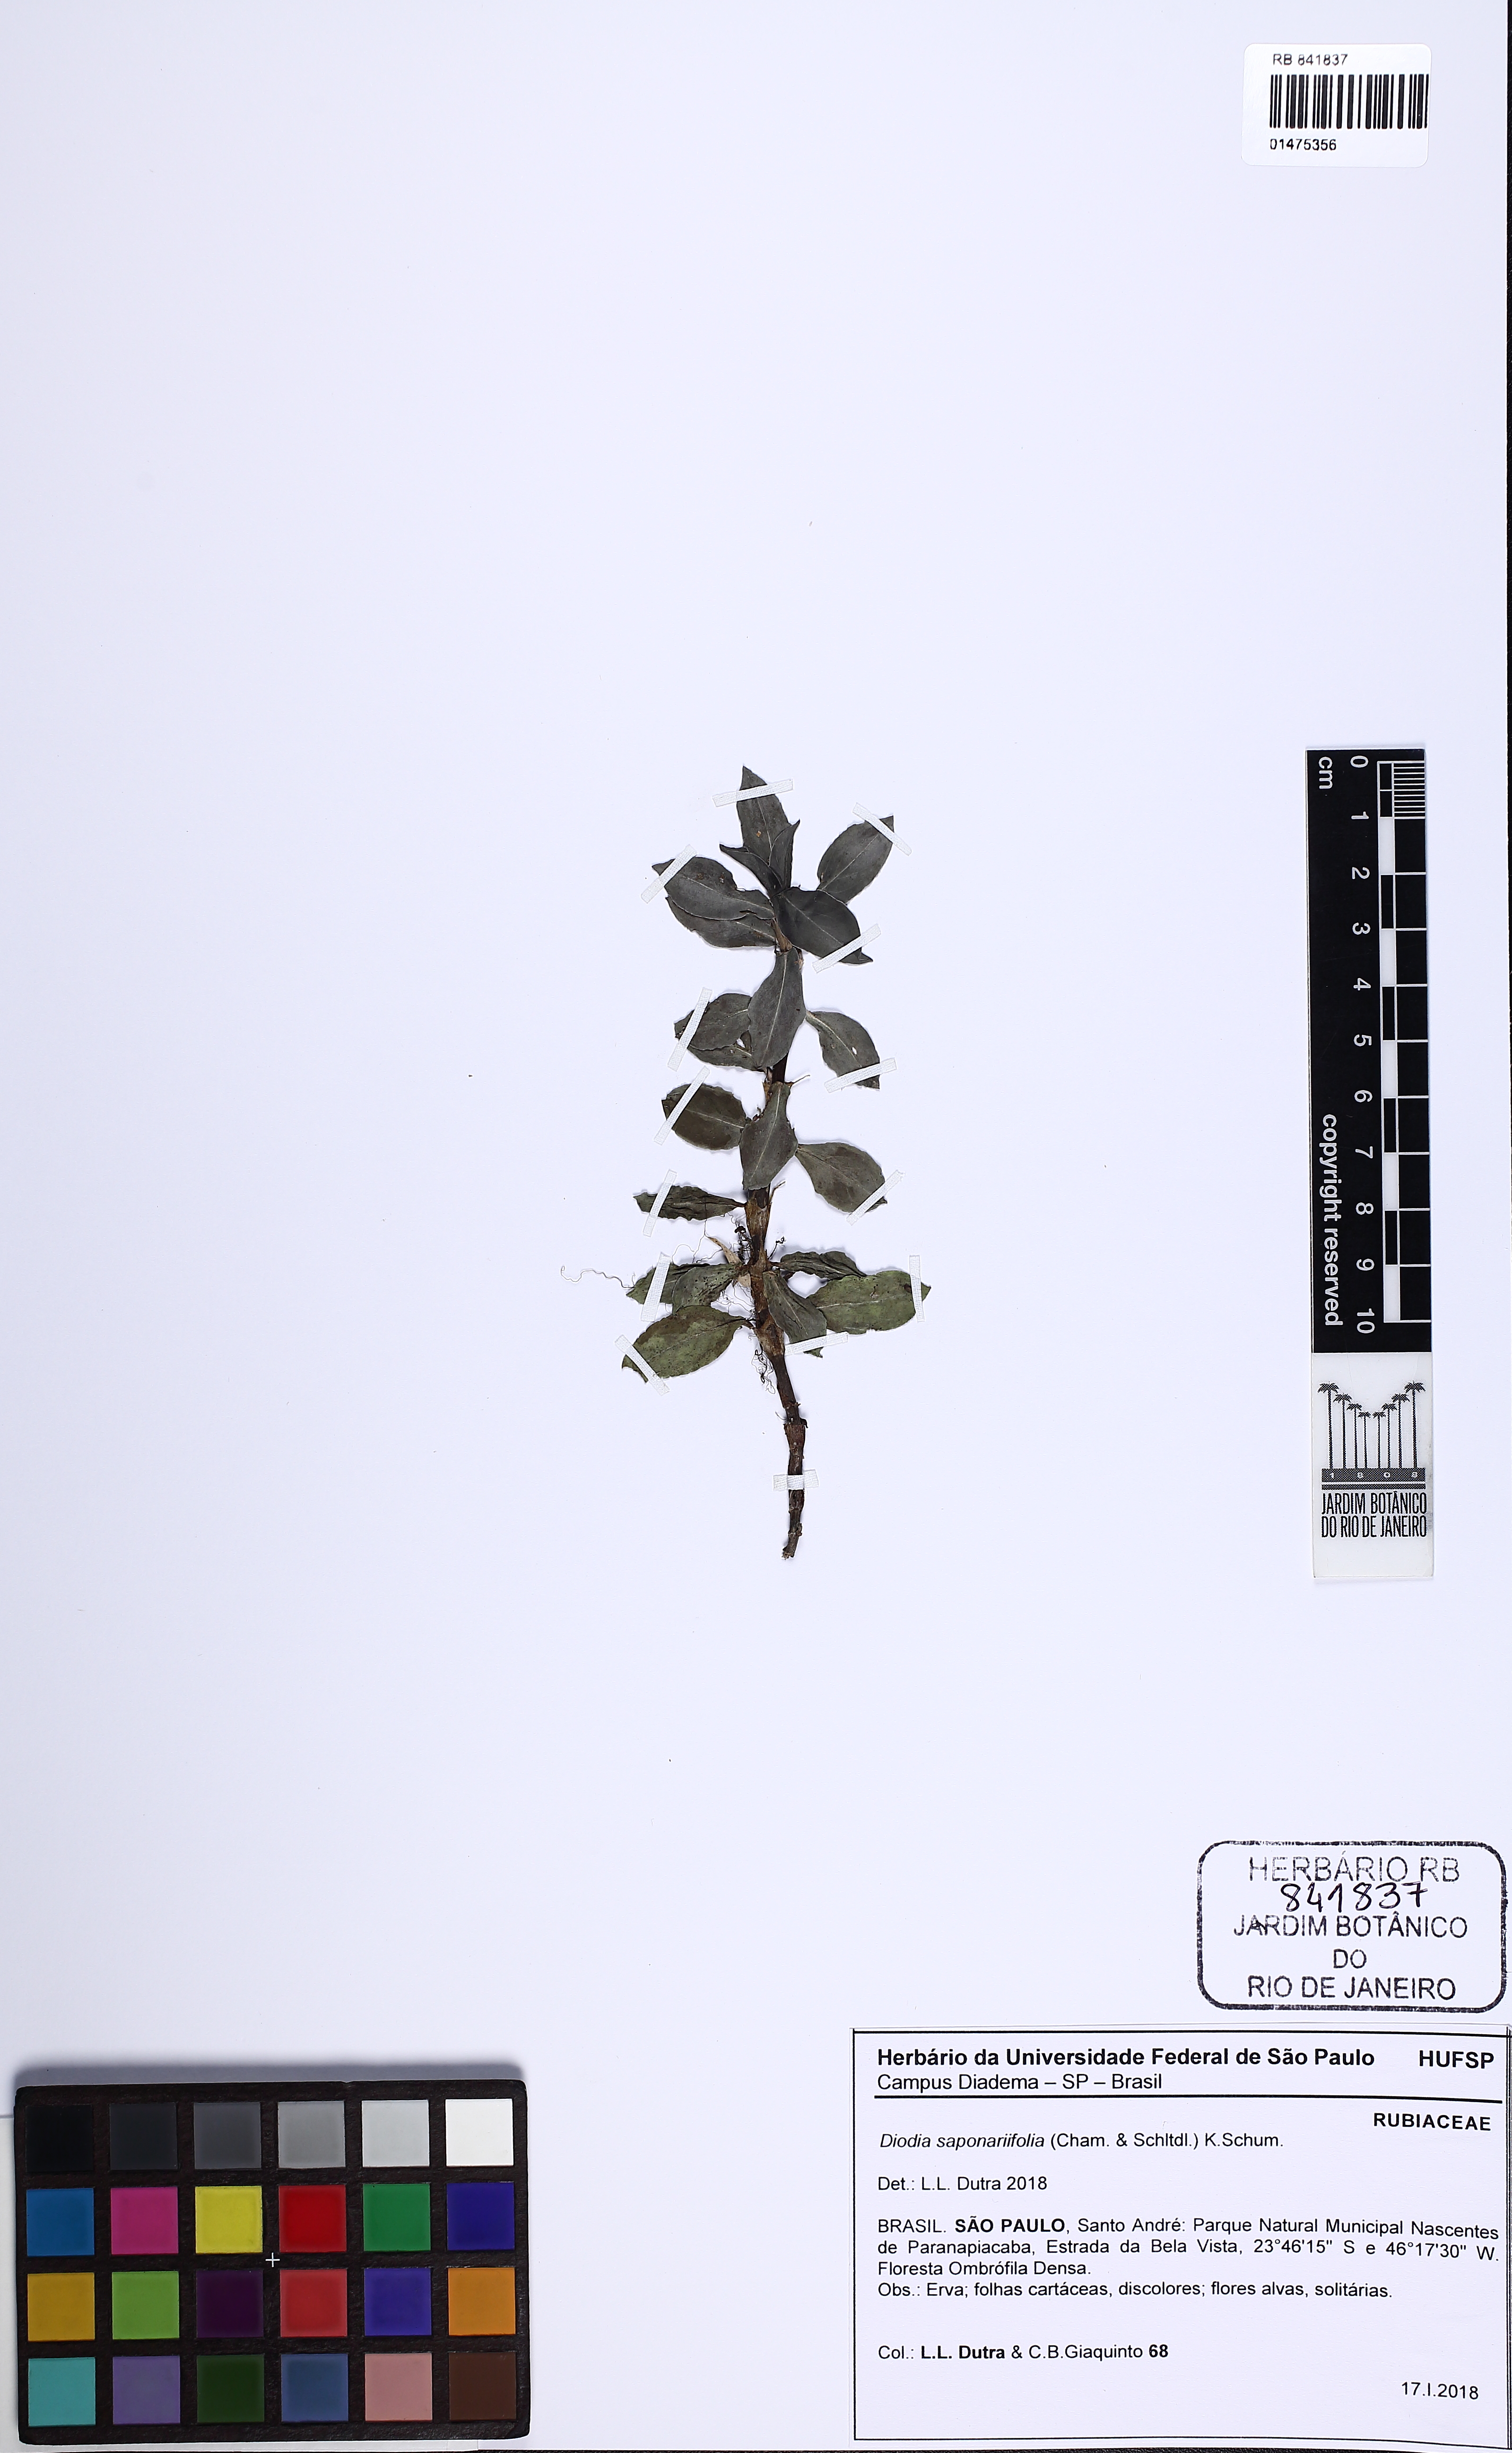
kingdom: Plantae
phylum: Tracheophyta
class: Magnoliopsida
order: Gentianales
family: Rubiaceae
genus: Diodia
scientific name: Diodia saponariifolia
